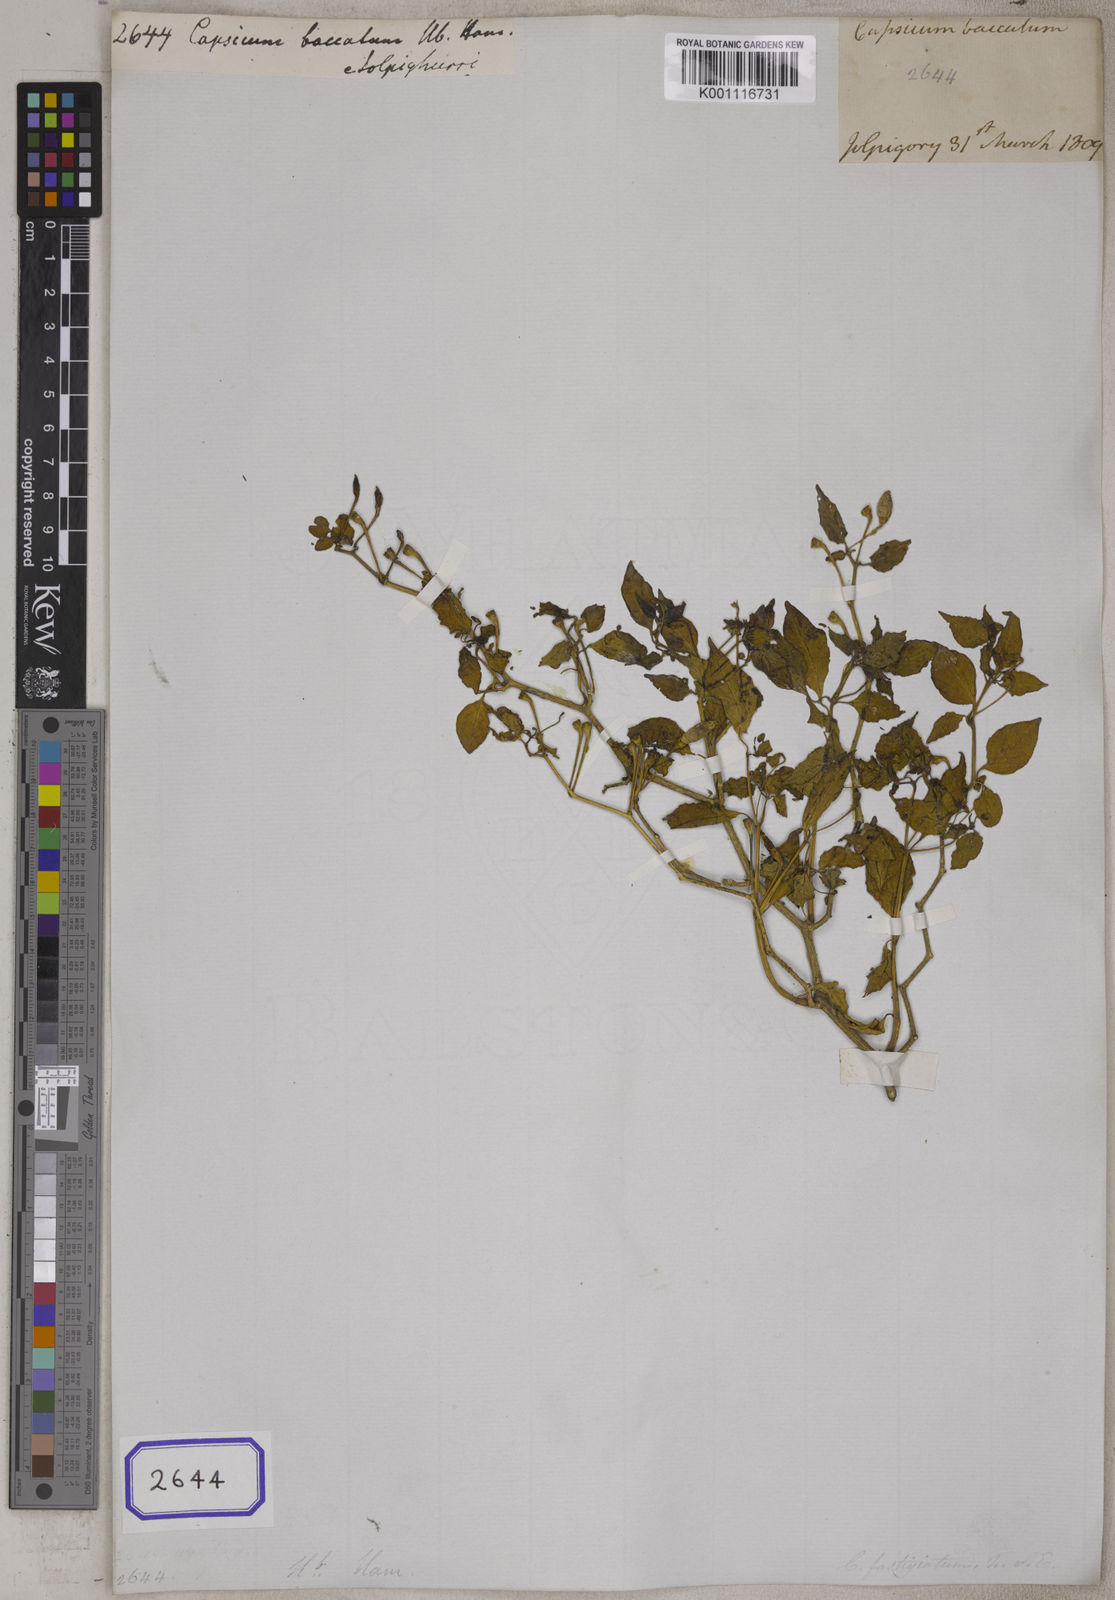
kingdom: Plantae
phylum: Tracheophyta
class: Magnoliopsida
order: Solanales
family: Solanaceae
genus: Capsicum
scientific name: Capsicum
